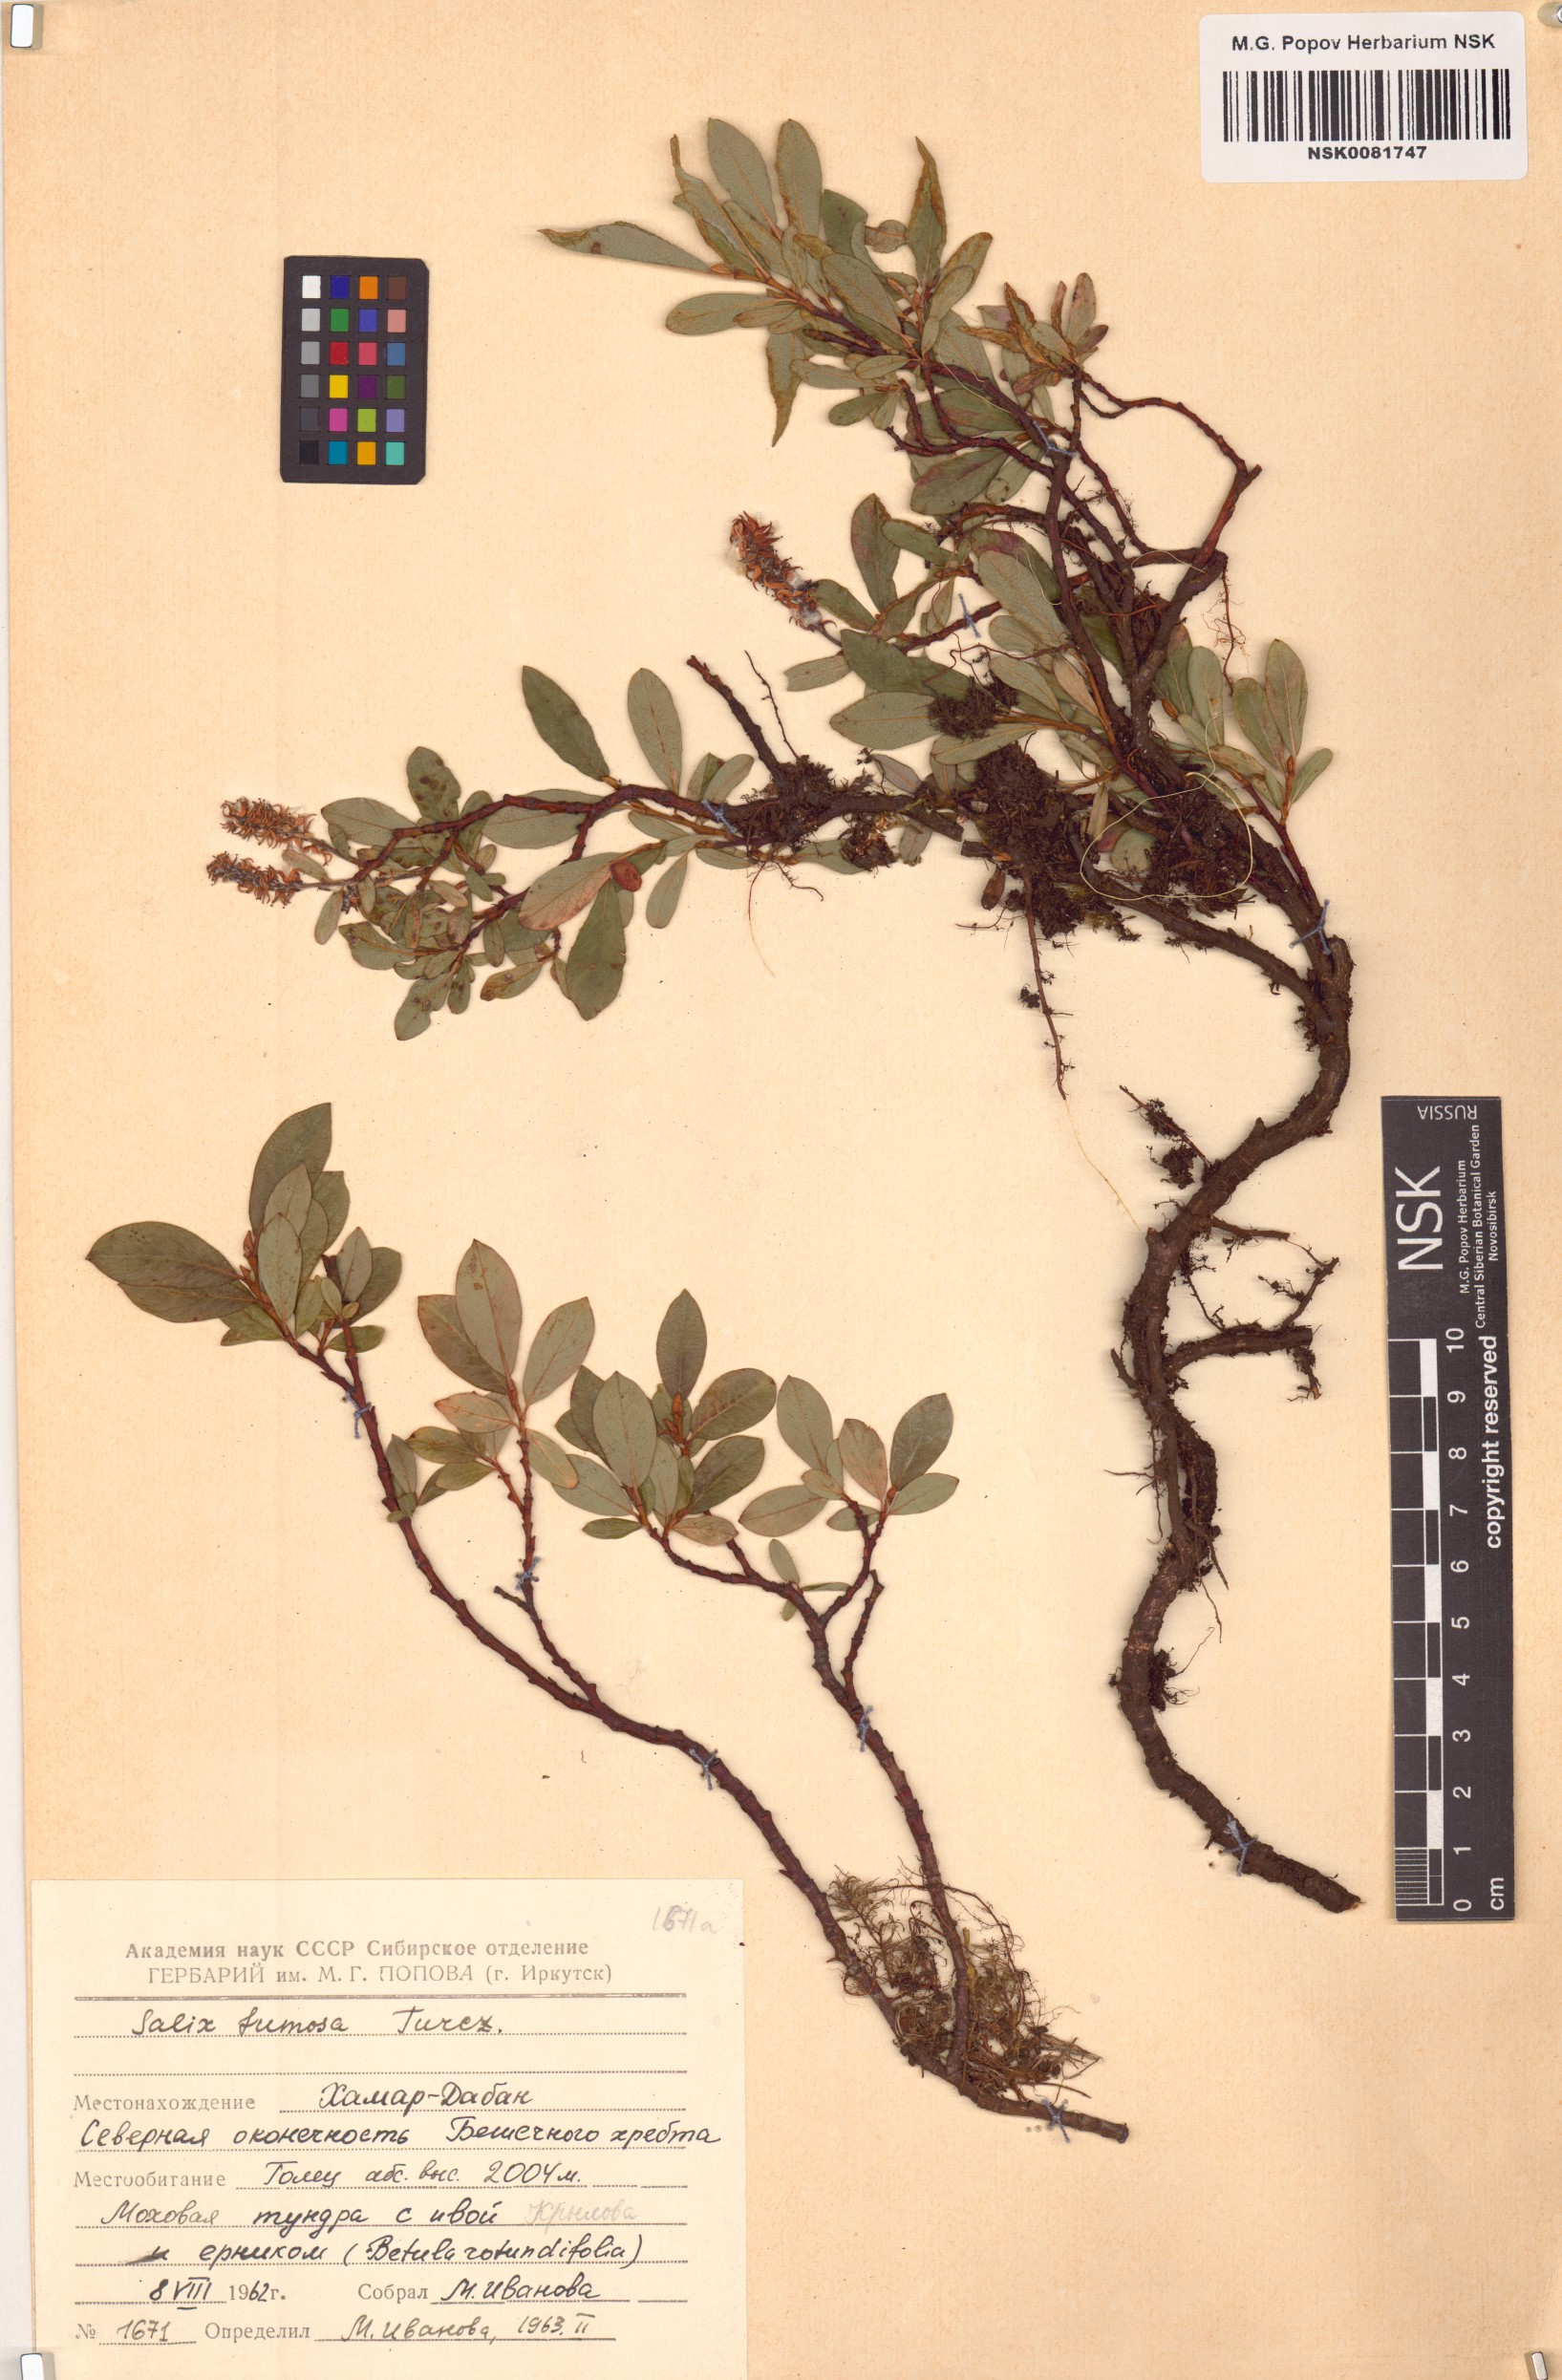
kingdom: Plantae
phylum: Tracheophyta
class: Magnoliopsida
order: Malpighiales
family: Salicaceae
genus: Salix
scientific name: Salix saxatilis
